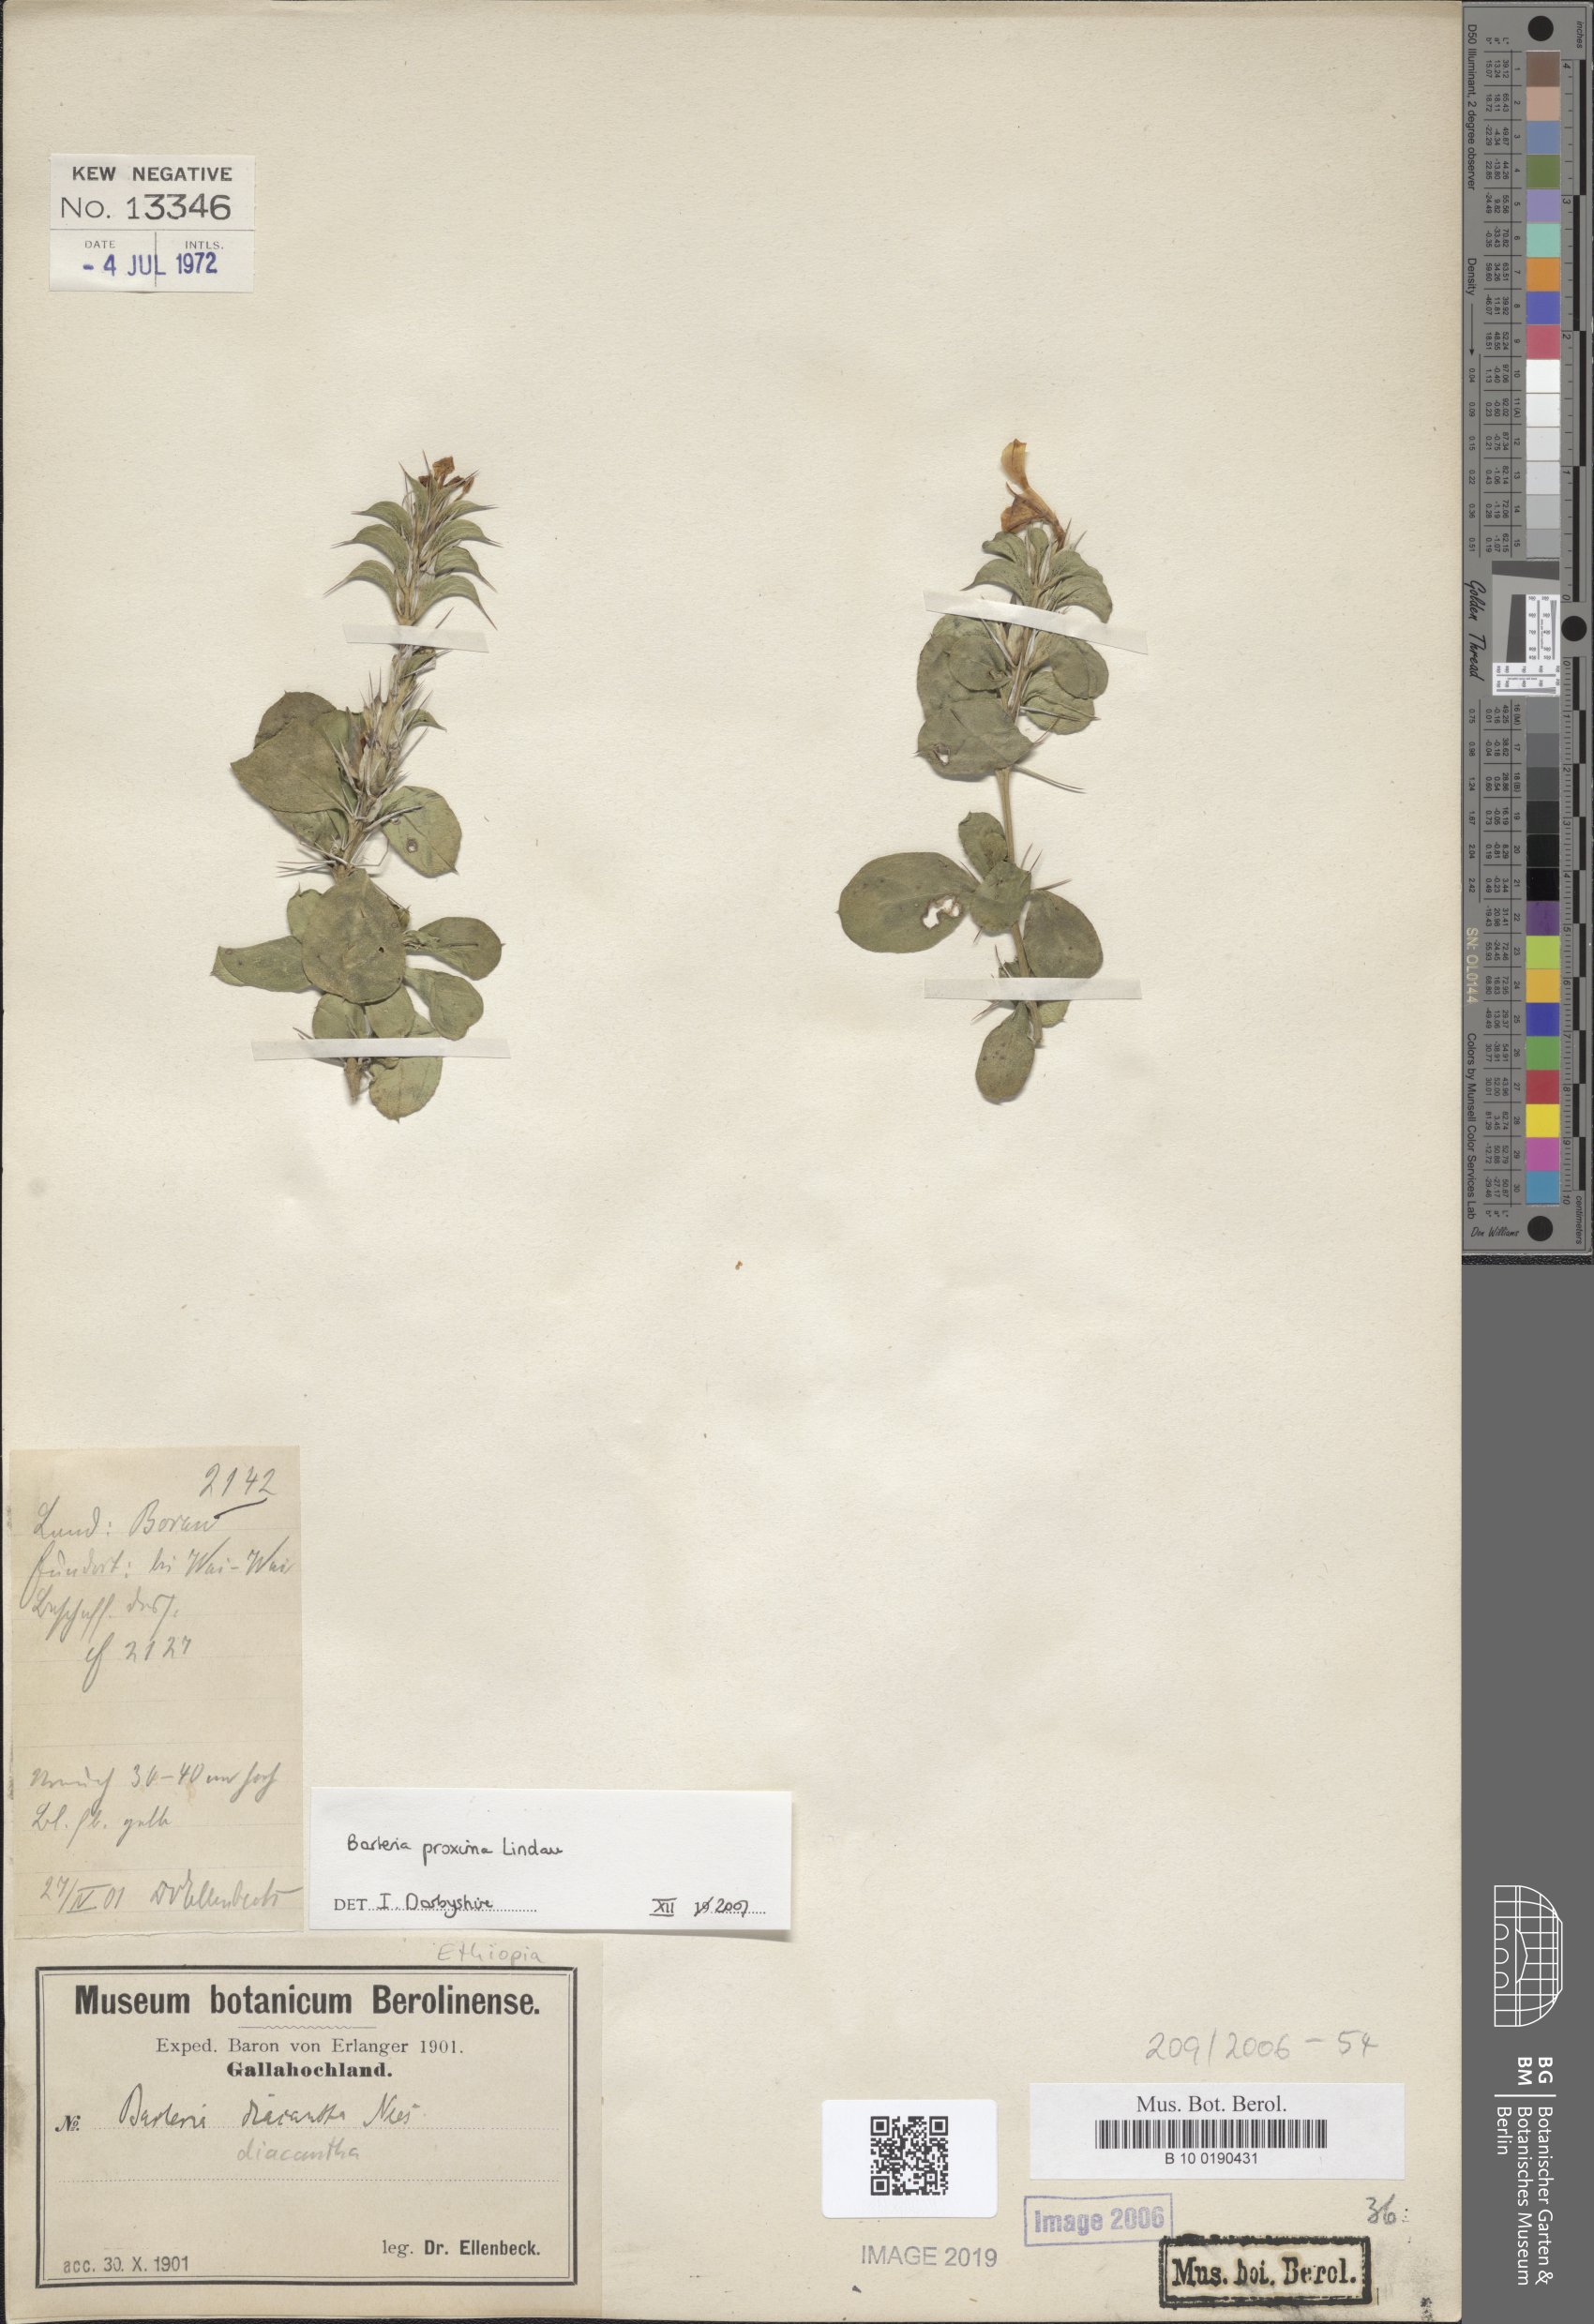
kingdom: Plantae
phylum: Tracheophyta
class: Magnoliopsida
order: Lamiales
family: Acanthaceae
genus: Barleria
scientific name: Barleria trispinosa
